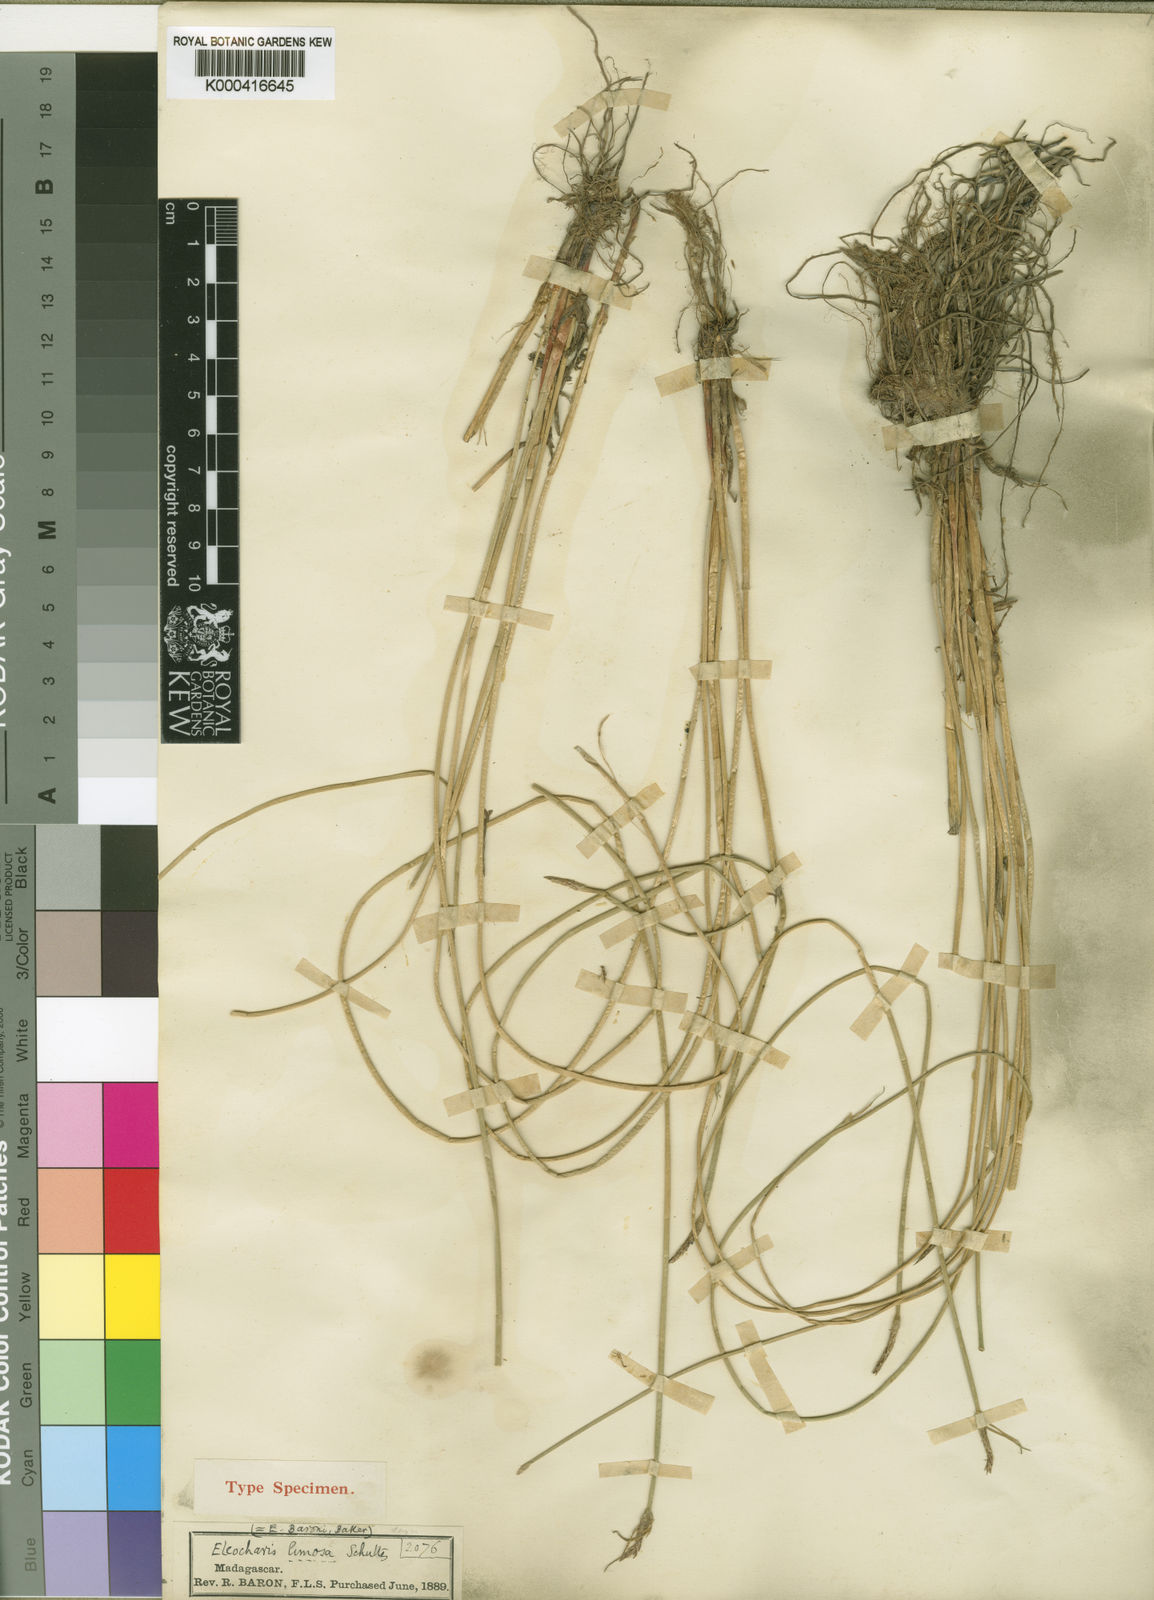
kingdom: Plantae
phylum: Tracheophyta
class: Liliopsida
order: Poales
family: Cyperaceae
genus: Eleocharis
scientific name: Eleocharis limosa
